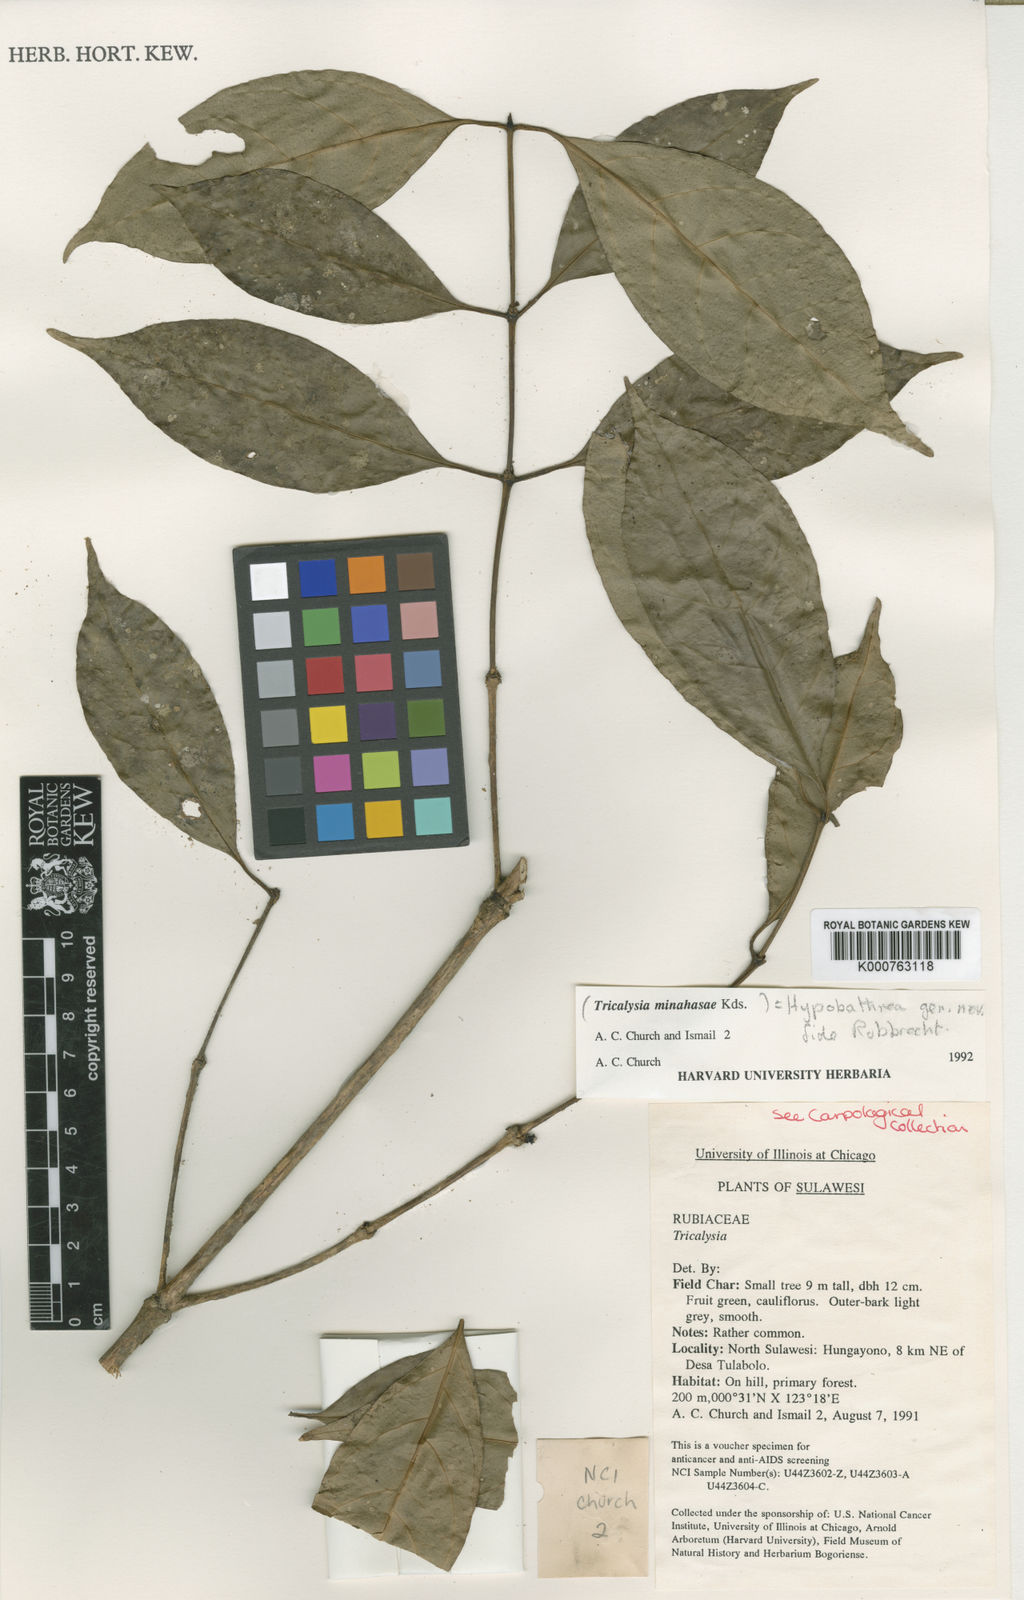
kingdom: Plantae
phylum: Tracheophyta
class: Magnoliopsida
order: Gentianales
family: Rubiaceae
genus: Diplospora
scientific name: Diplospora minahassae
